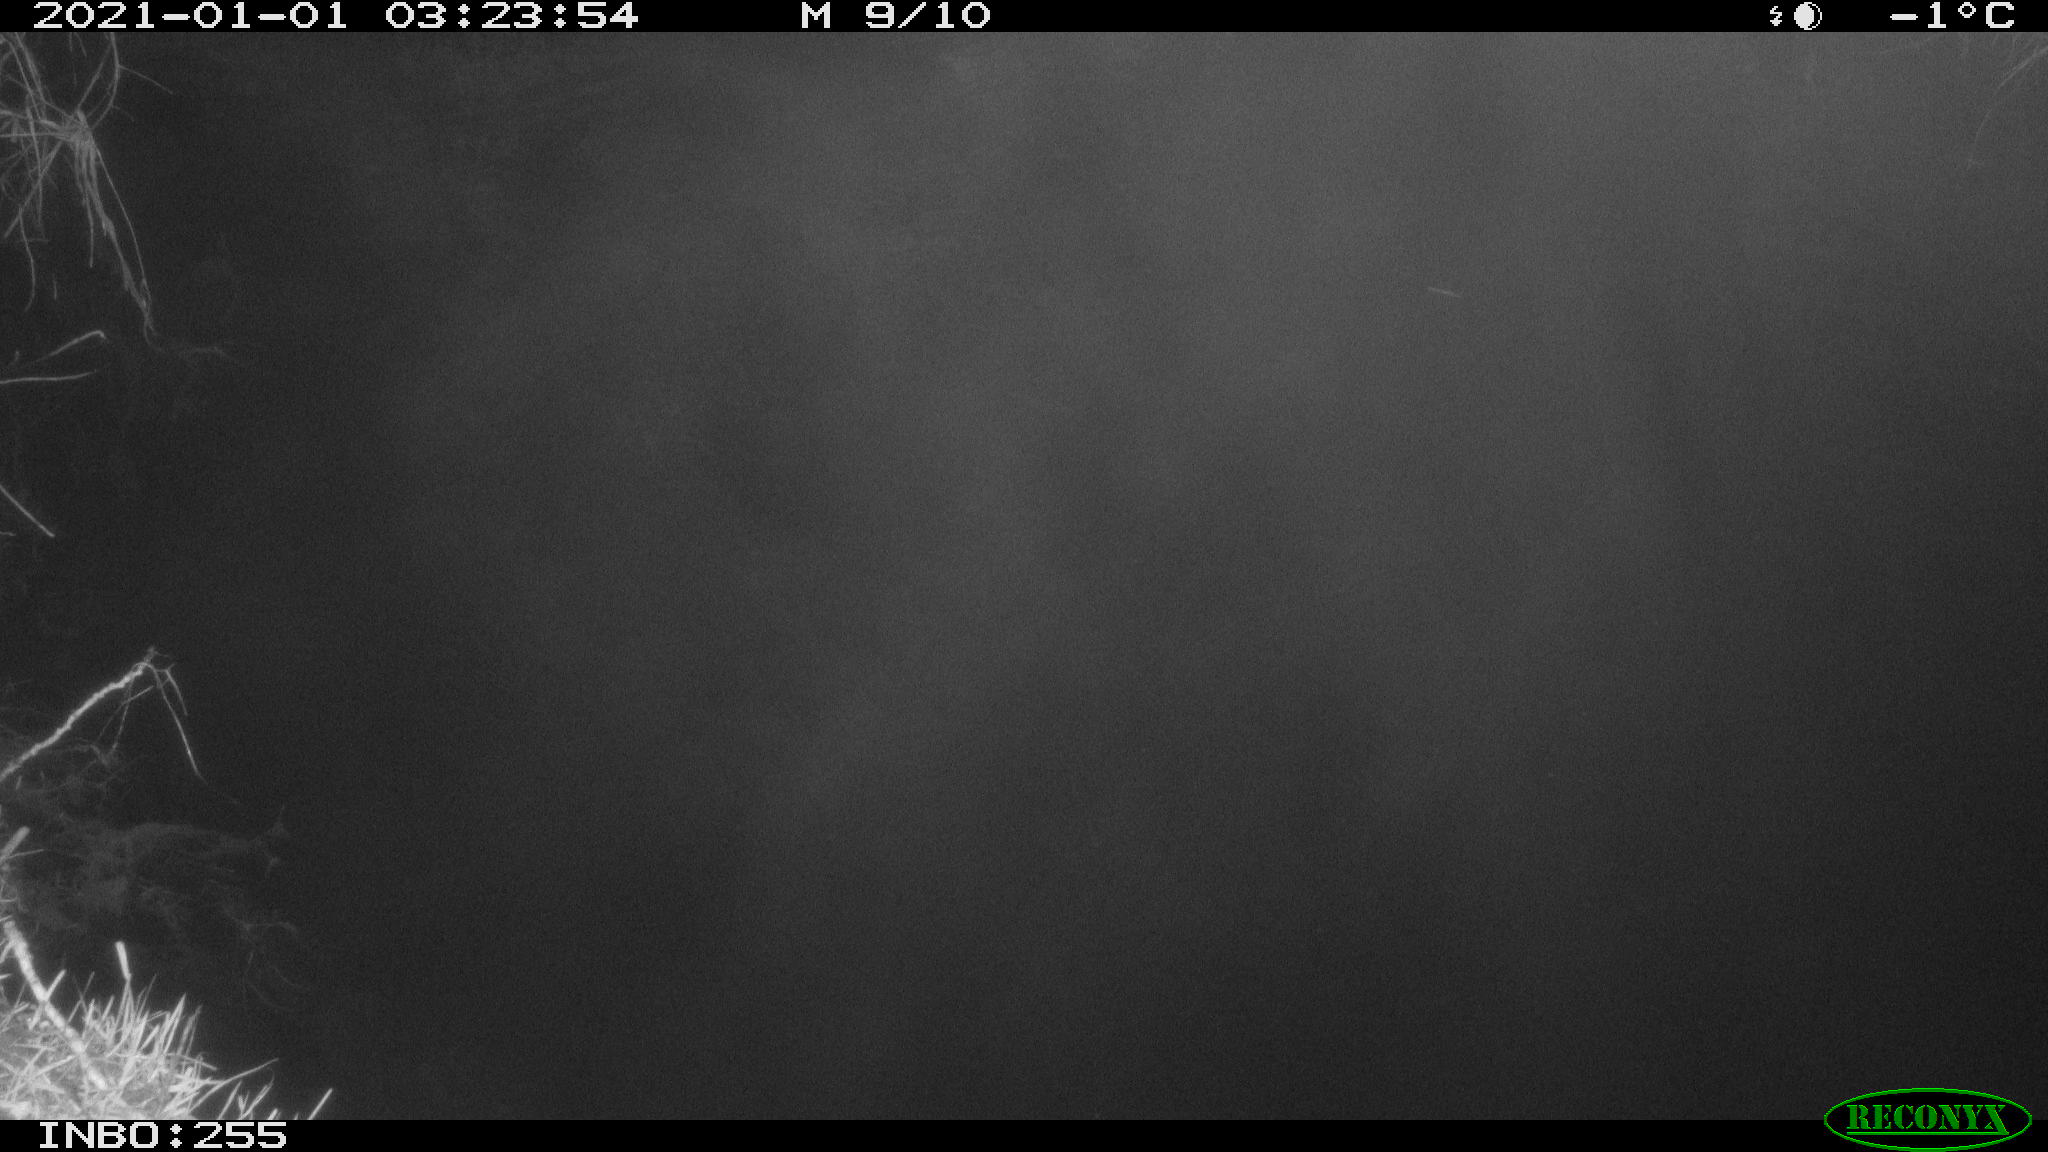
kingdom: Animalia
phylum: Chordata
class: Aves
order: Anseriformes
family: Anatidae
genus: Anas
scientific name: Anas platyrhynchos
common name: Mallard
